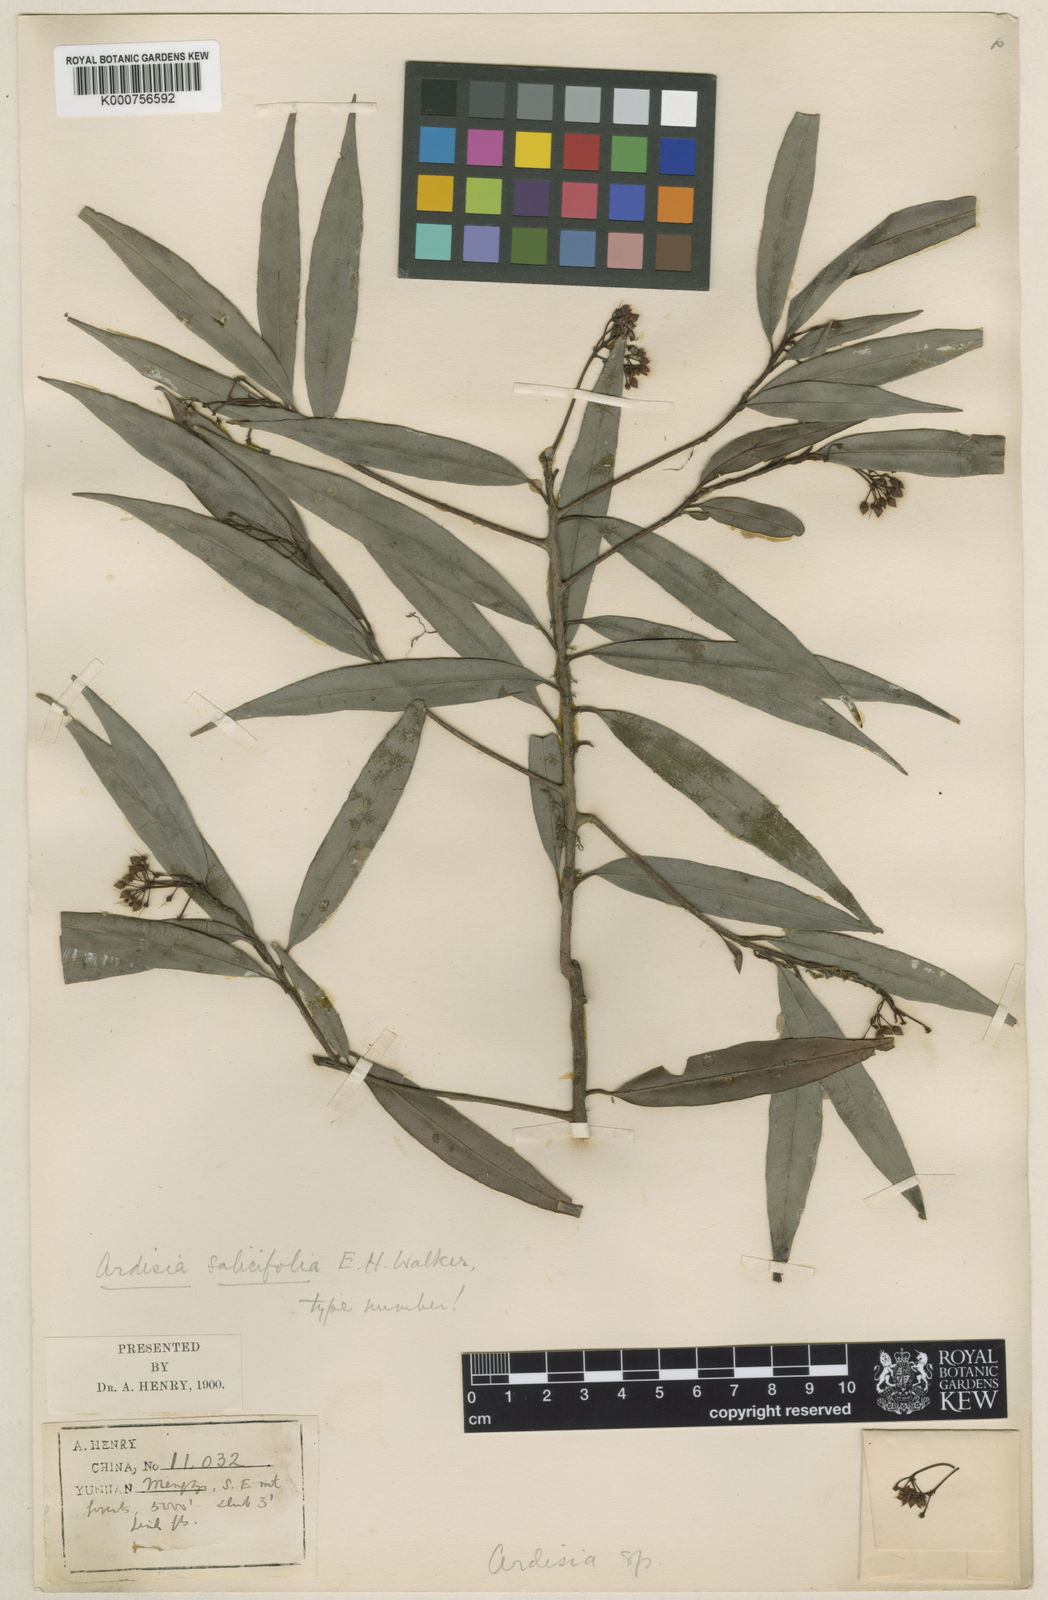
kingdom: Plantae
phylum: Tracheophyta
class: Magnoliopsida
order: Ericales
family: Primulaceae
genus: Ardisia
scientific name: Ardisia
